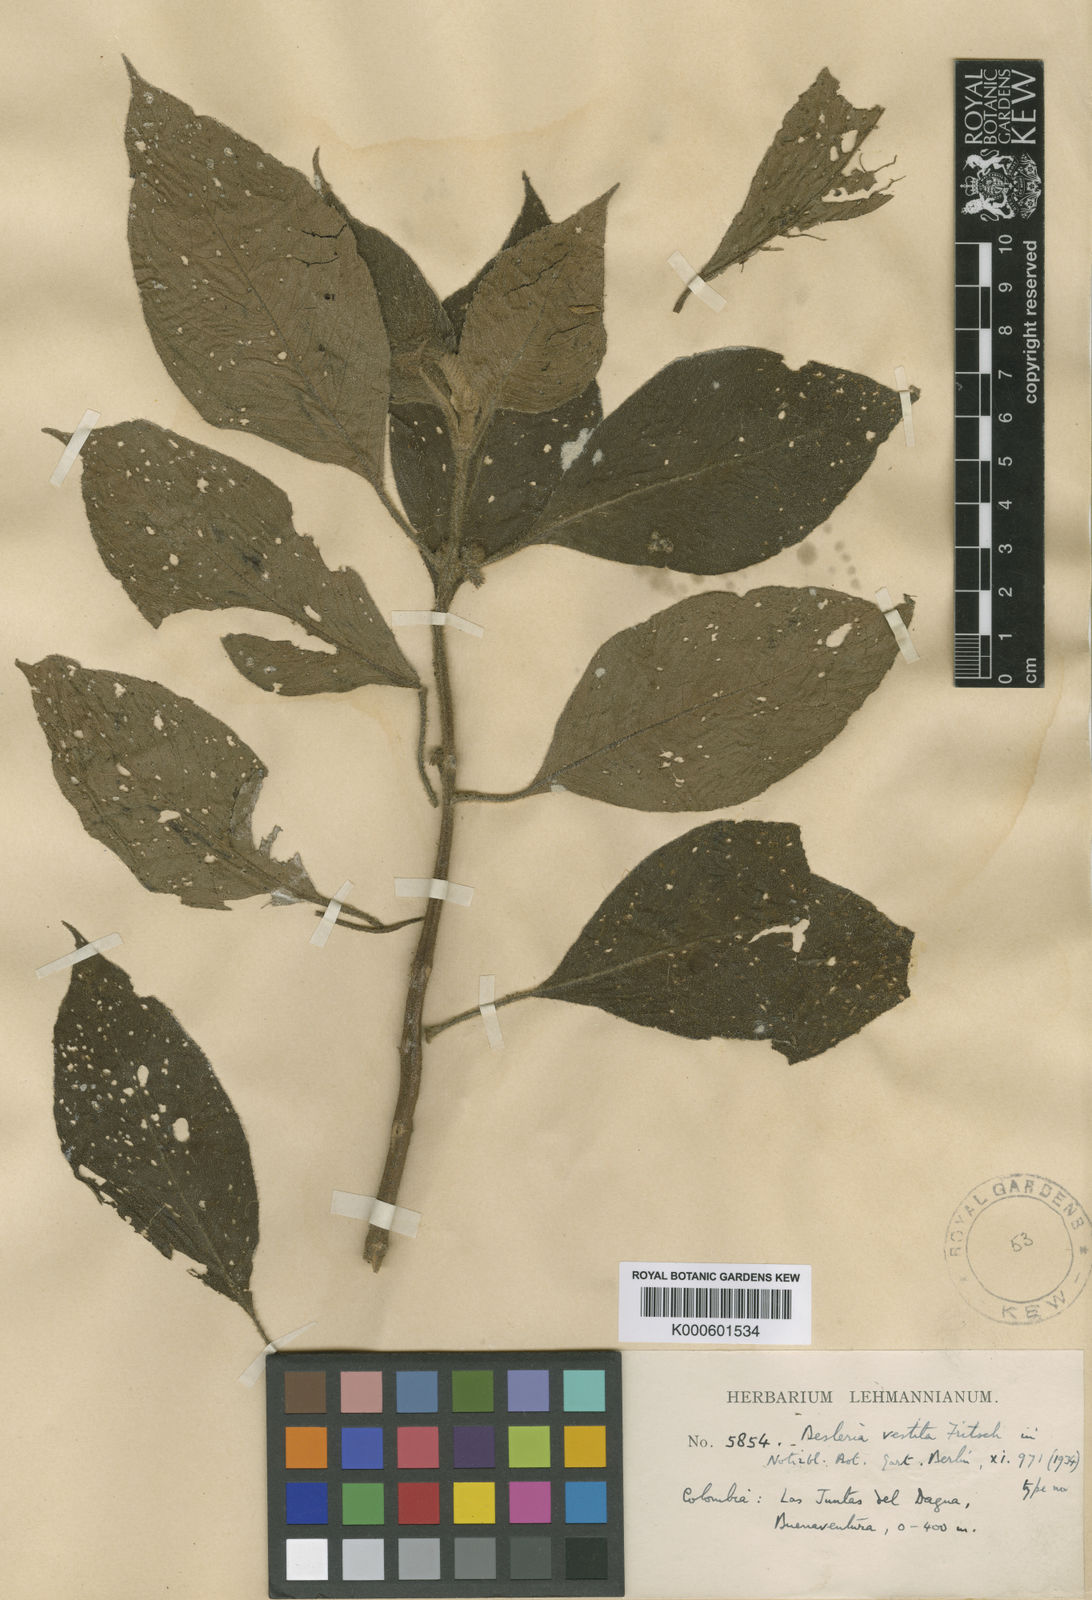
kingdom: Plantae
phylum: Tracheophyta
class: Magnoliopsida
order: Lamiales
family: Gesneriaceae
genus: Besleria
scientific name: Besleria vestita
